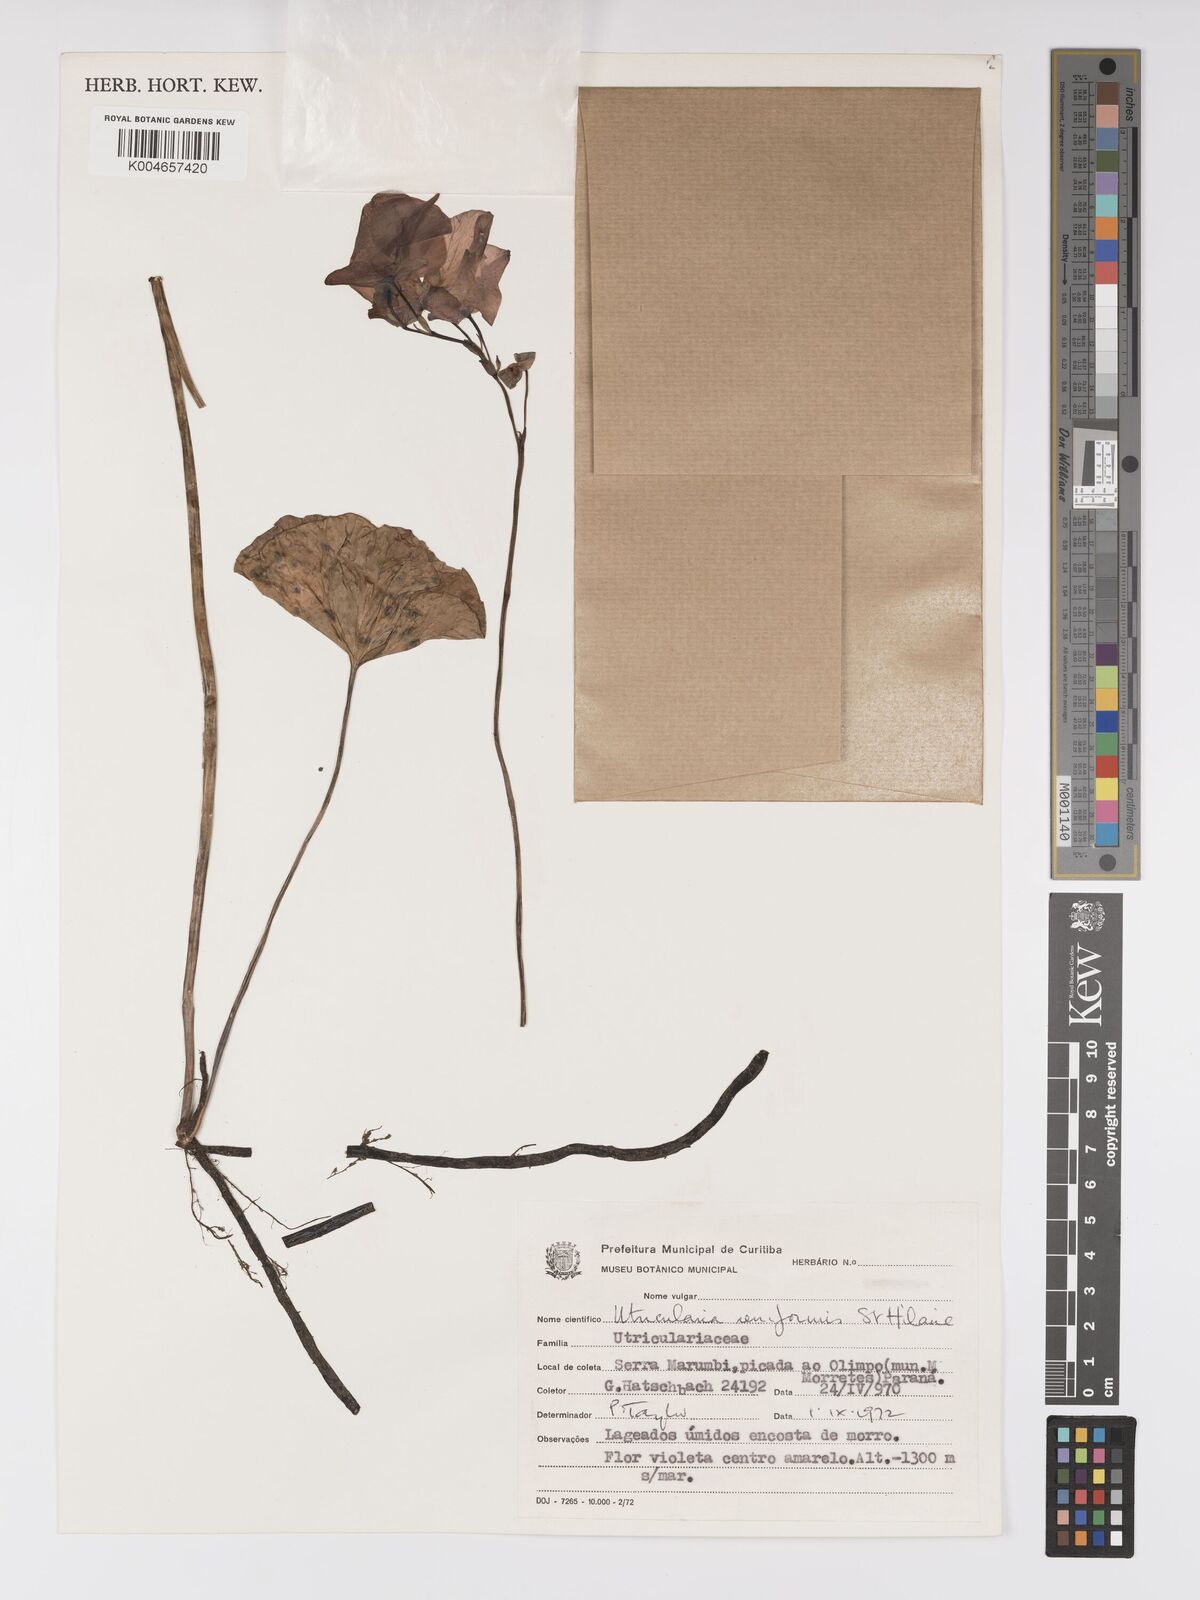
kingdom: Plantae
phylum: Tracheophyta
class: Magnoliopsida
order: Lamiales
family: Lentibulariaceae
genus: Utricularia
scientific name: Utricularia reniformis
